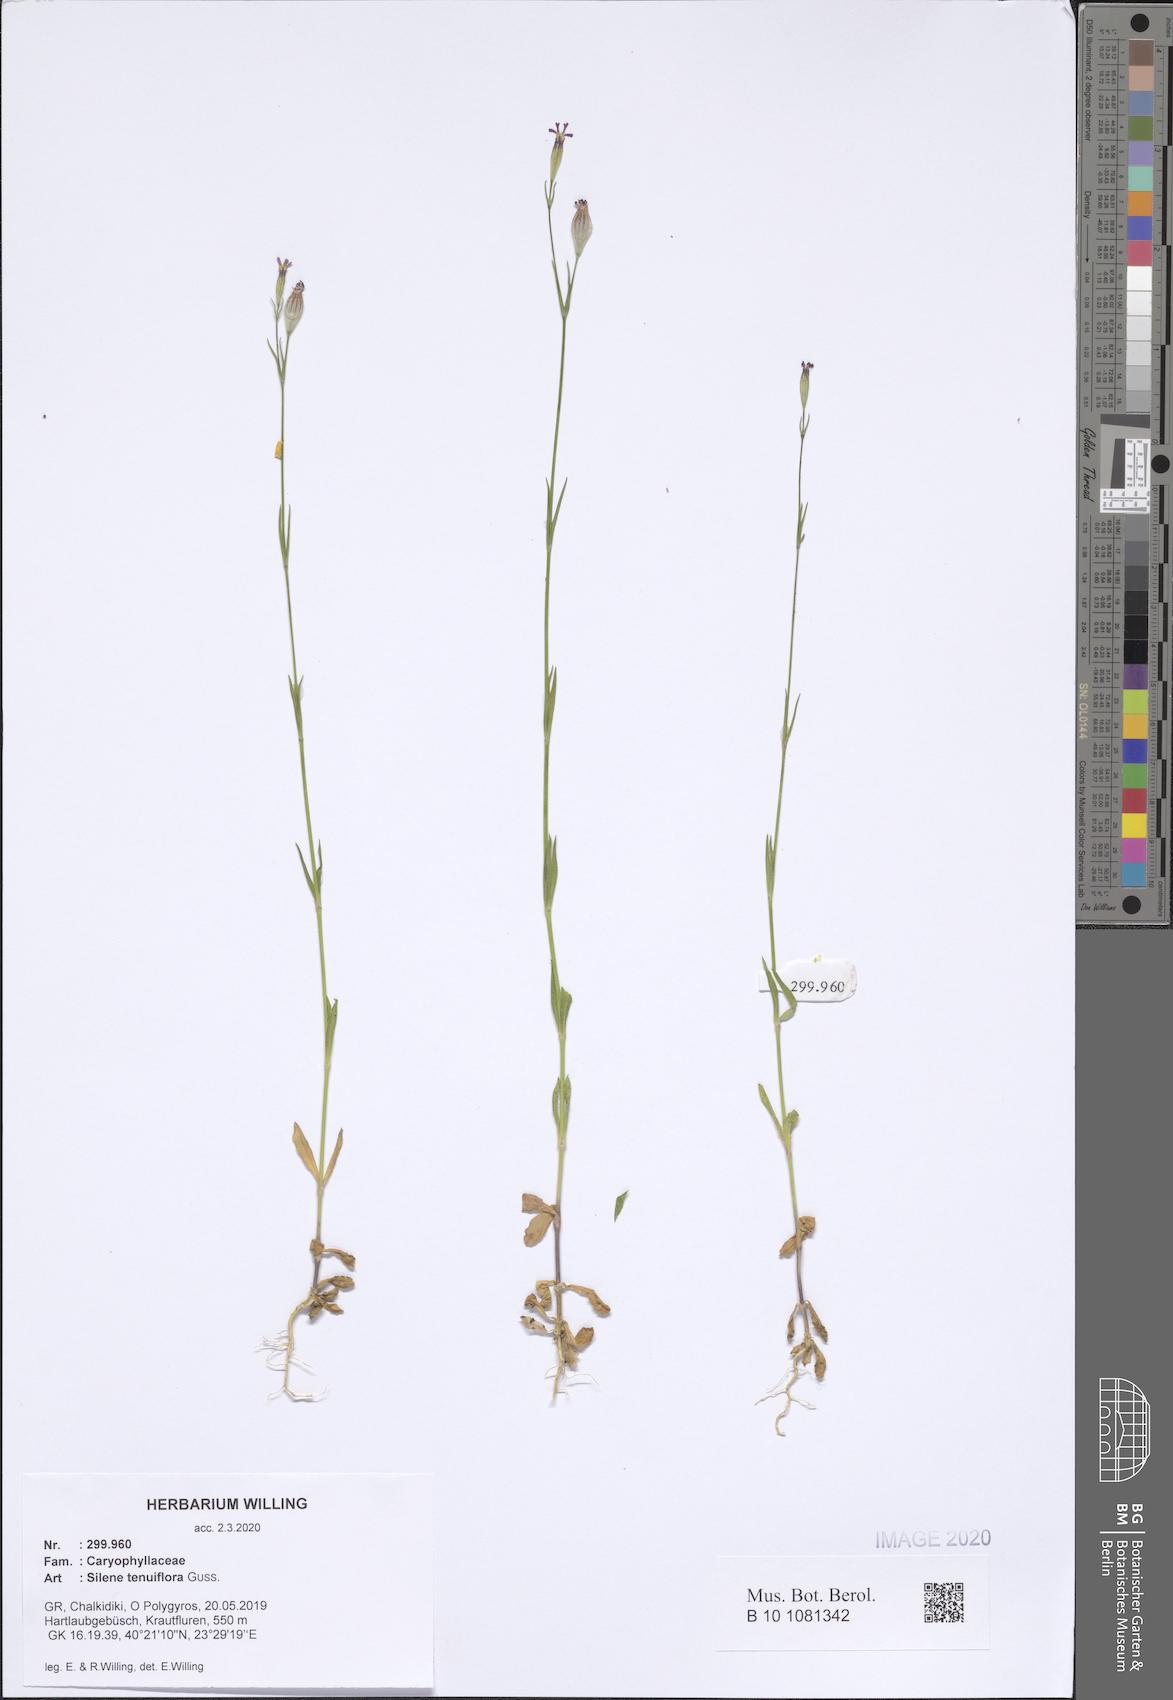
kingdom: Plantae
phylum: Tracheophyta
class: Magnoliopsida
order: Caryophyllales
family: Caryophyllaceae
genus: Silene
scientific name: Silene tenuiflora
